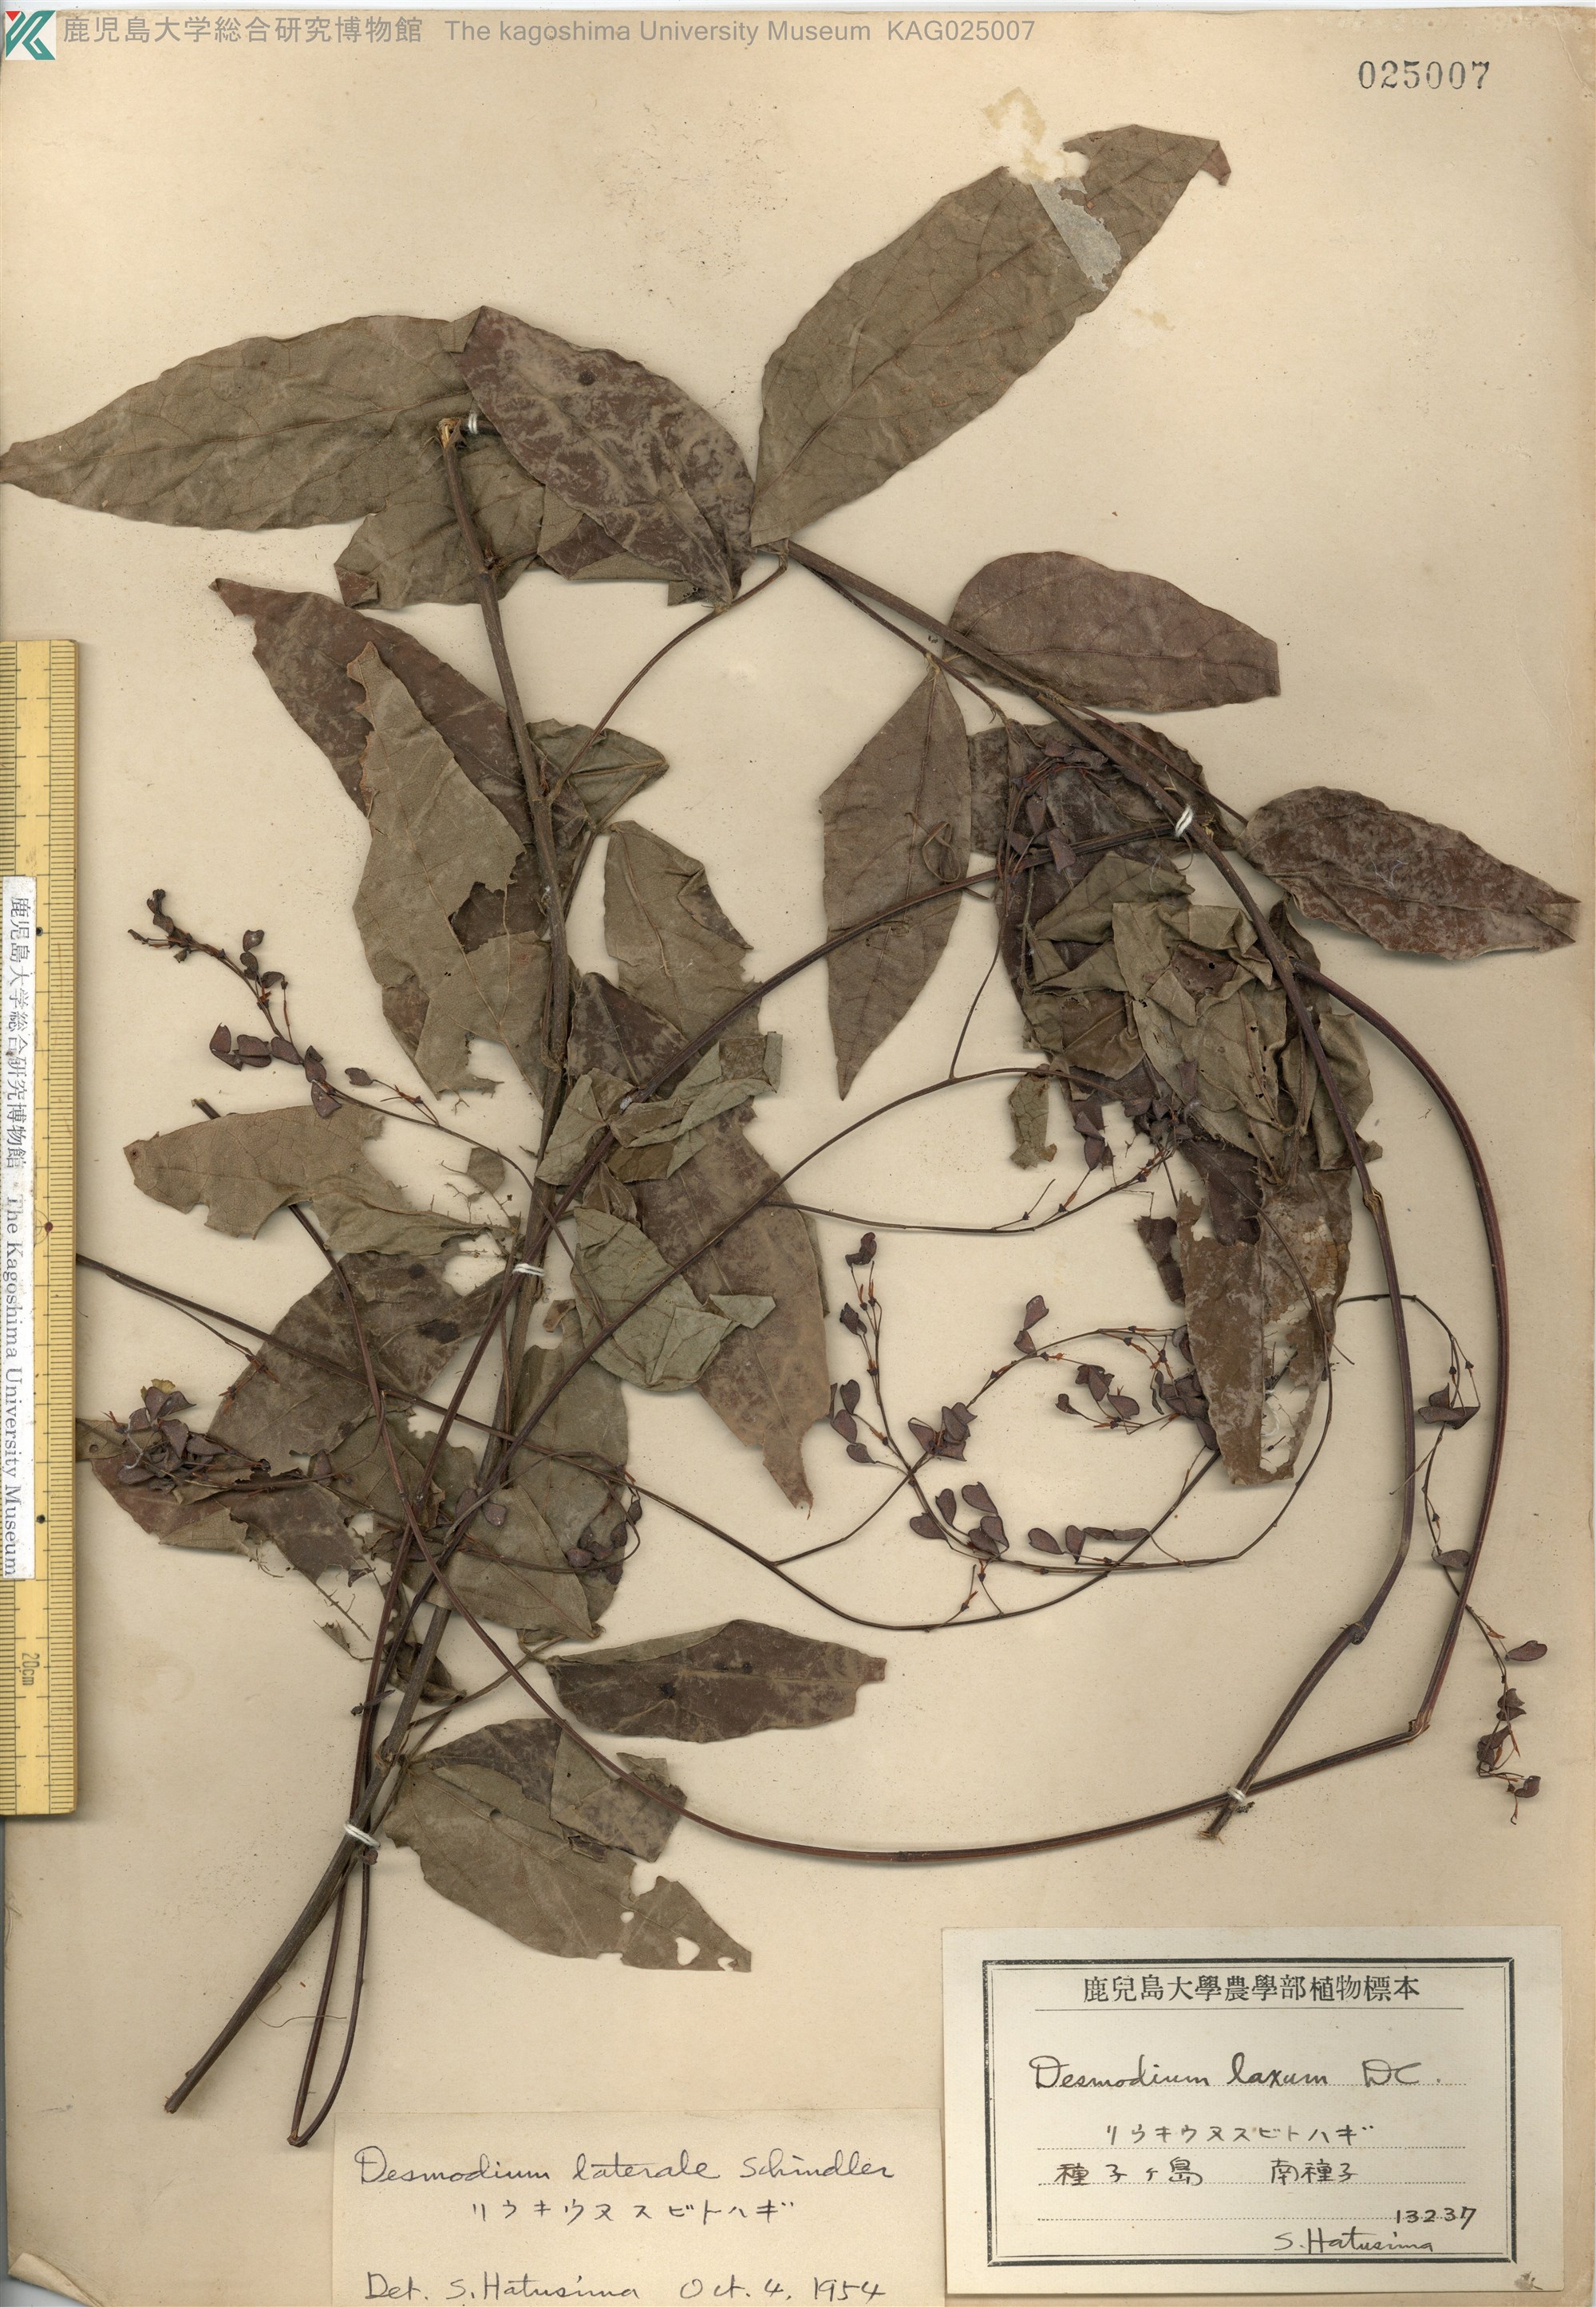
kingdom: Plantae
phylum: Tracheophyta
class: Magnoliopsida
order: Fabales
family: Fabaceae
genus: Hylodesmum
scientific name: Hylodesmum laterale
